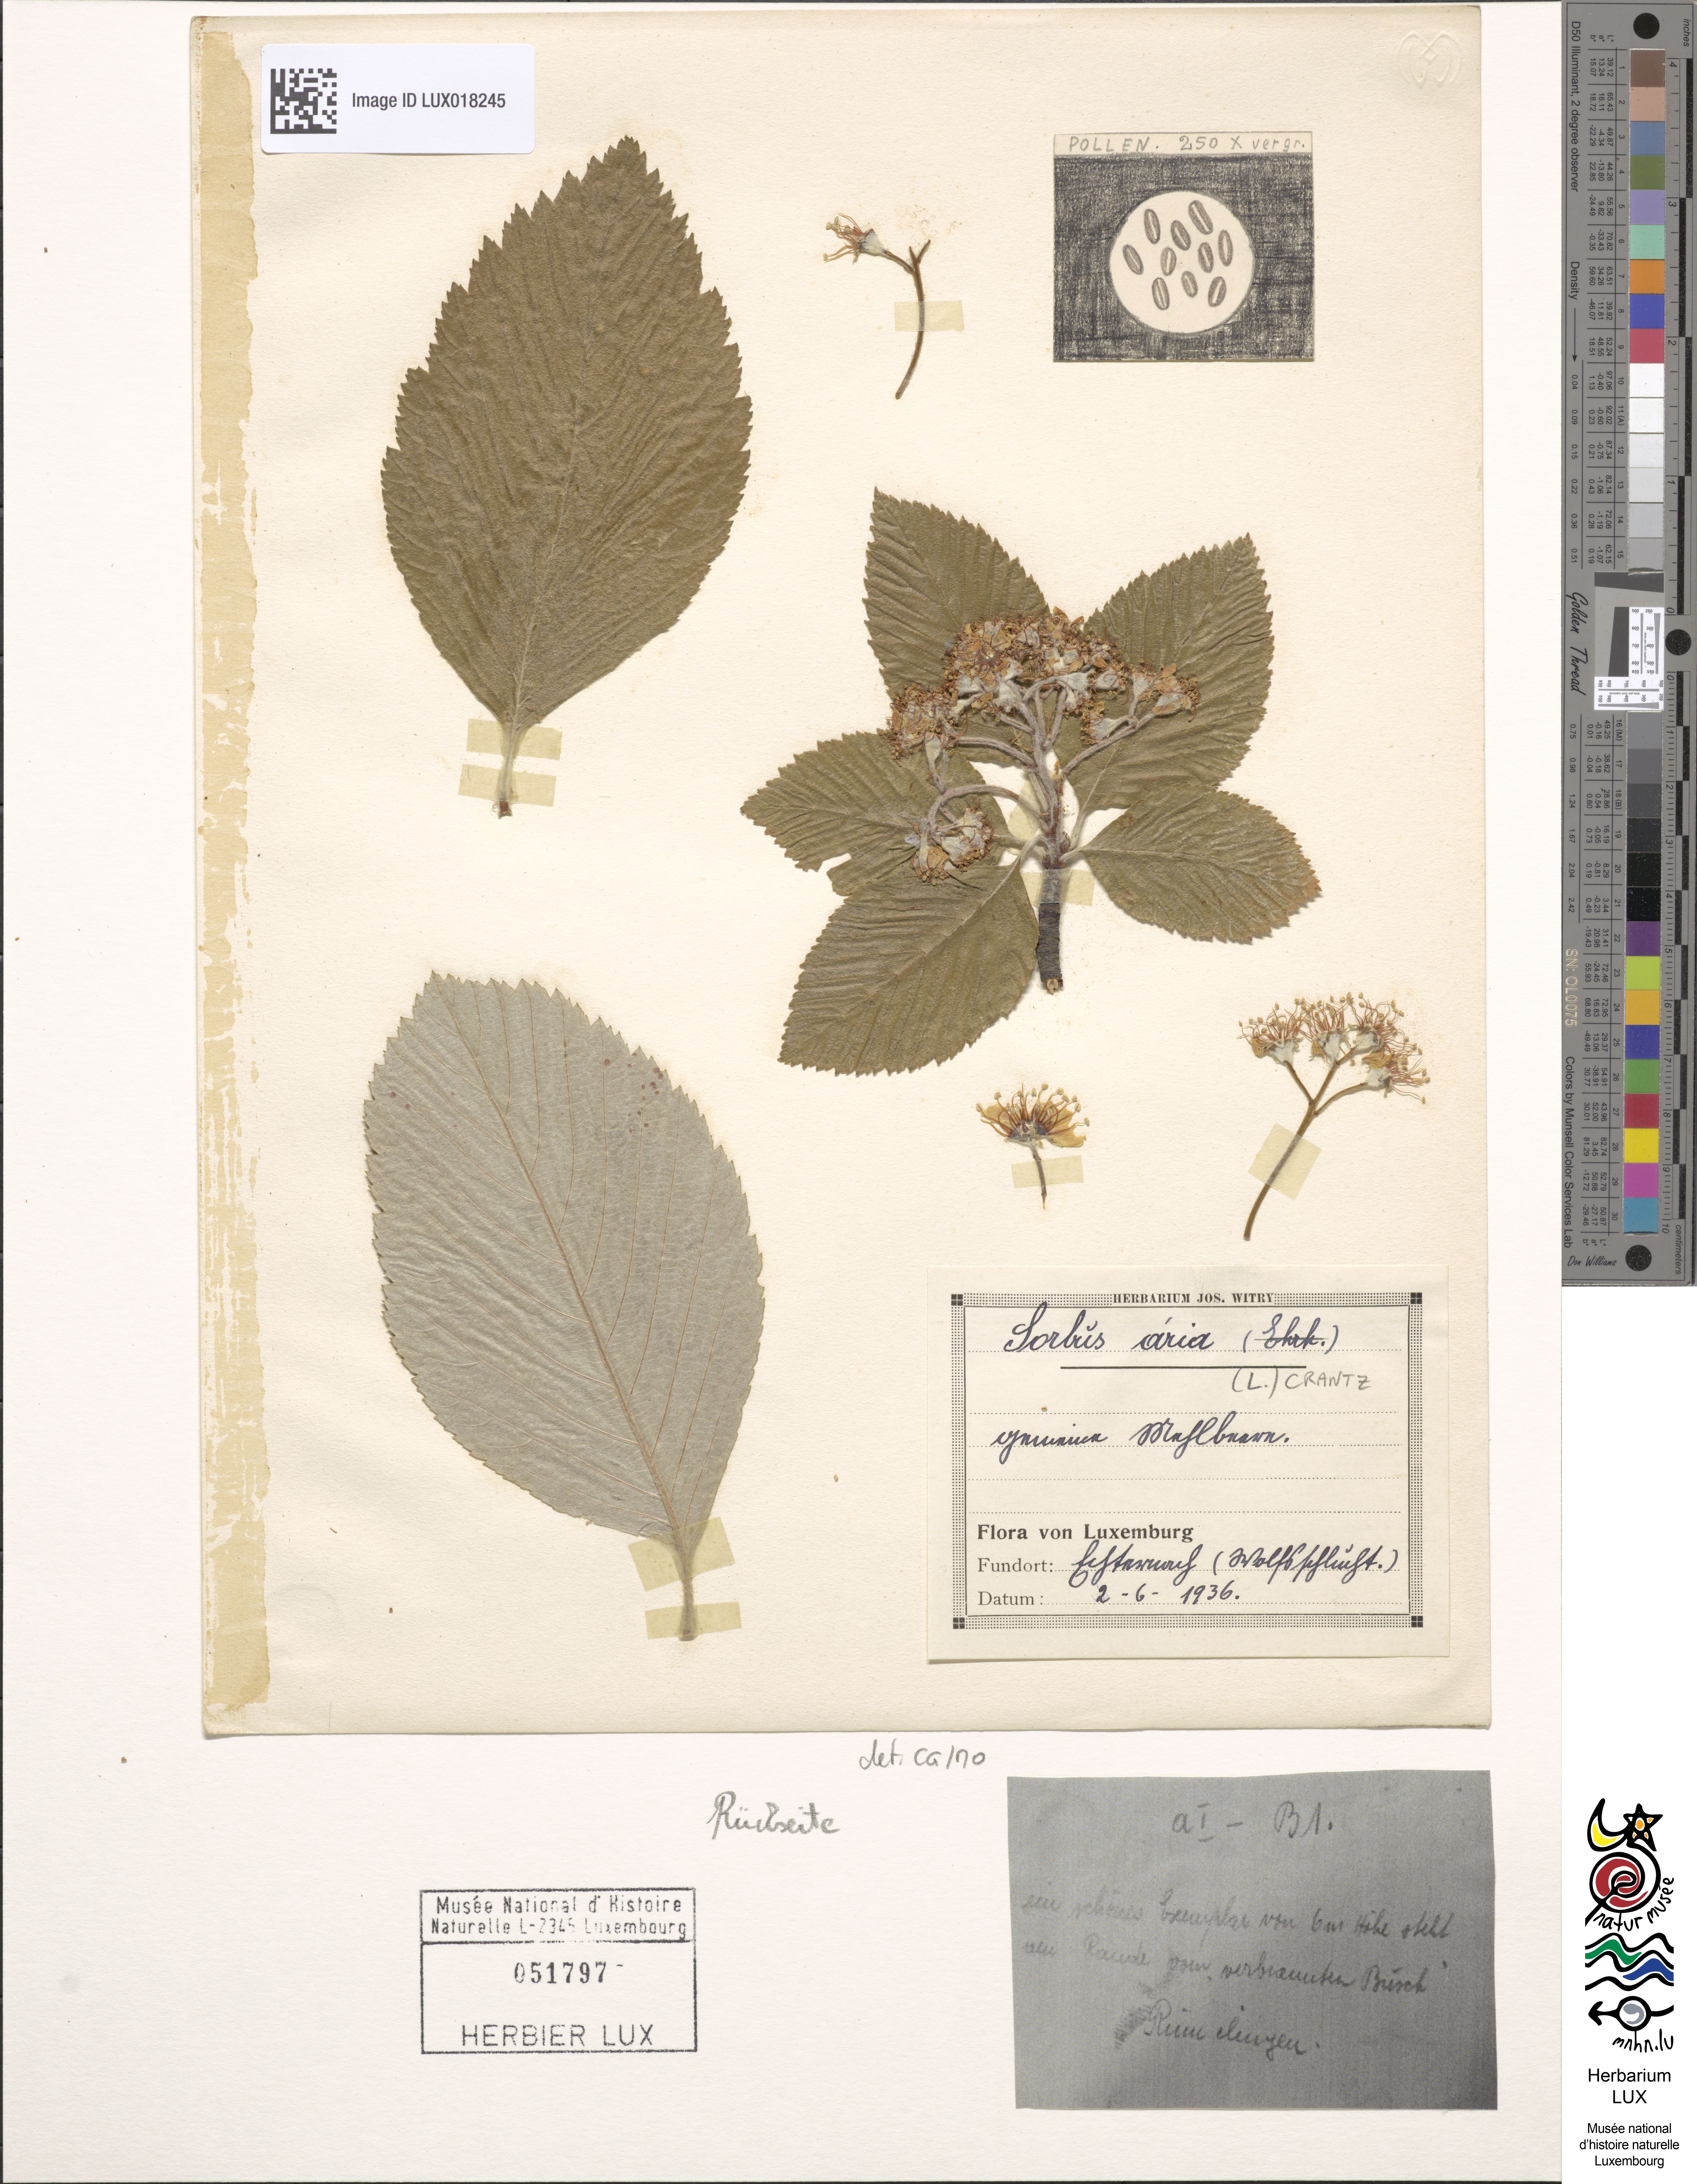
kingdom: Plantae
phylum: Tracheophyta
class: Magnoliopsida
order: Rosales
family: Rosaceae
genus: Aria
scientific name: Aria edulis
